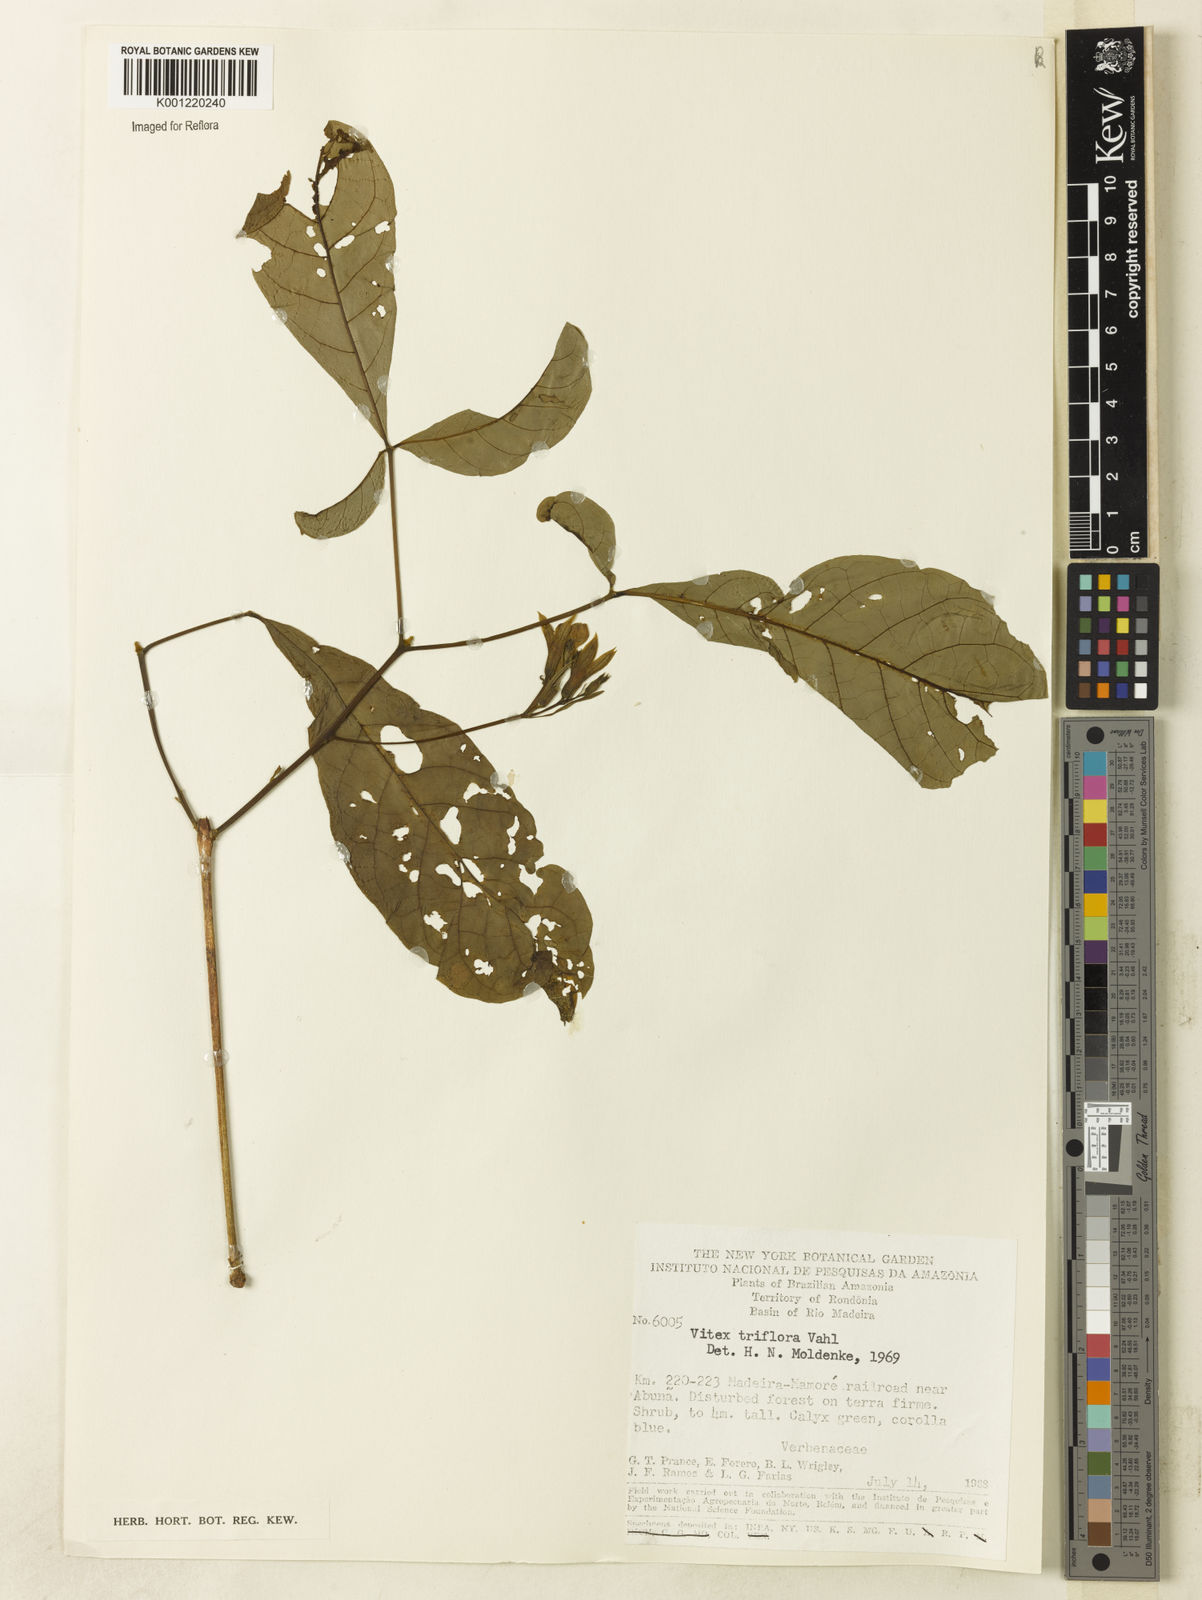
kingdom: Plantae
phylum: Tracheophyta
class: Magnoliopsida
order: Lamiales
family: Lamiaceae
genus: Vitex
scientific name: Vitex triflora
